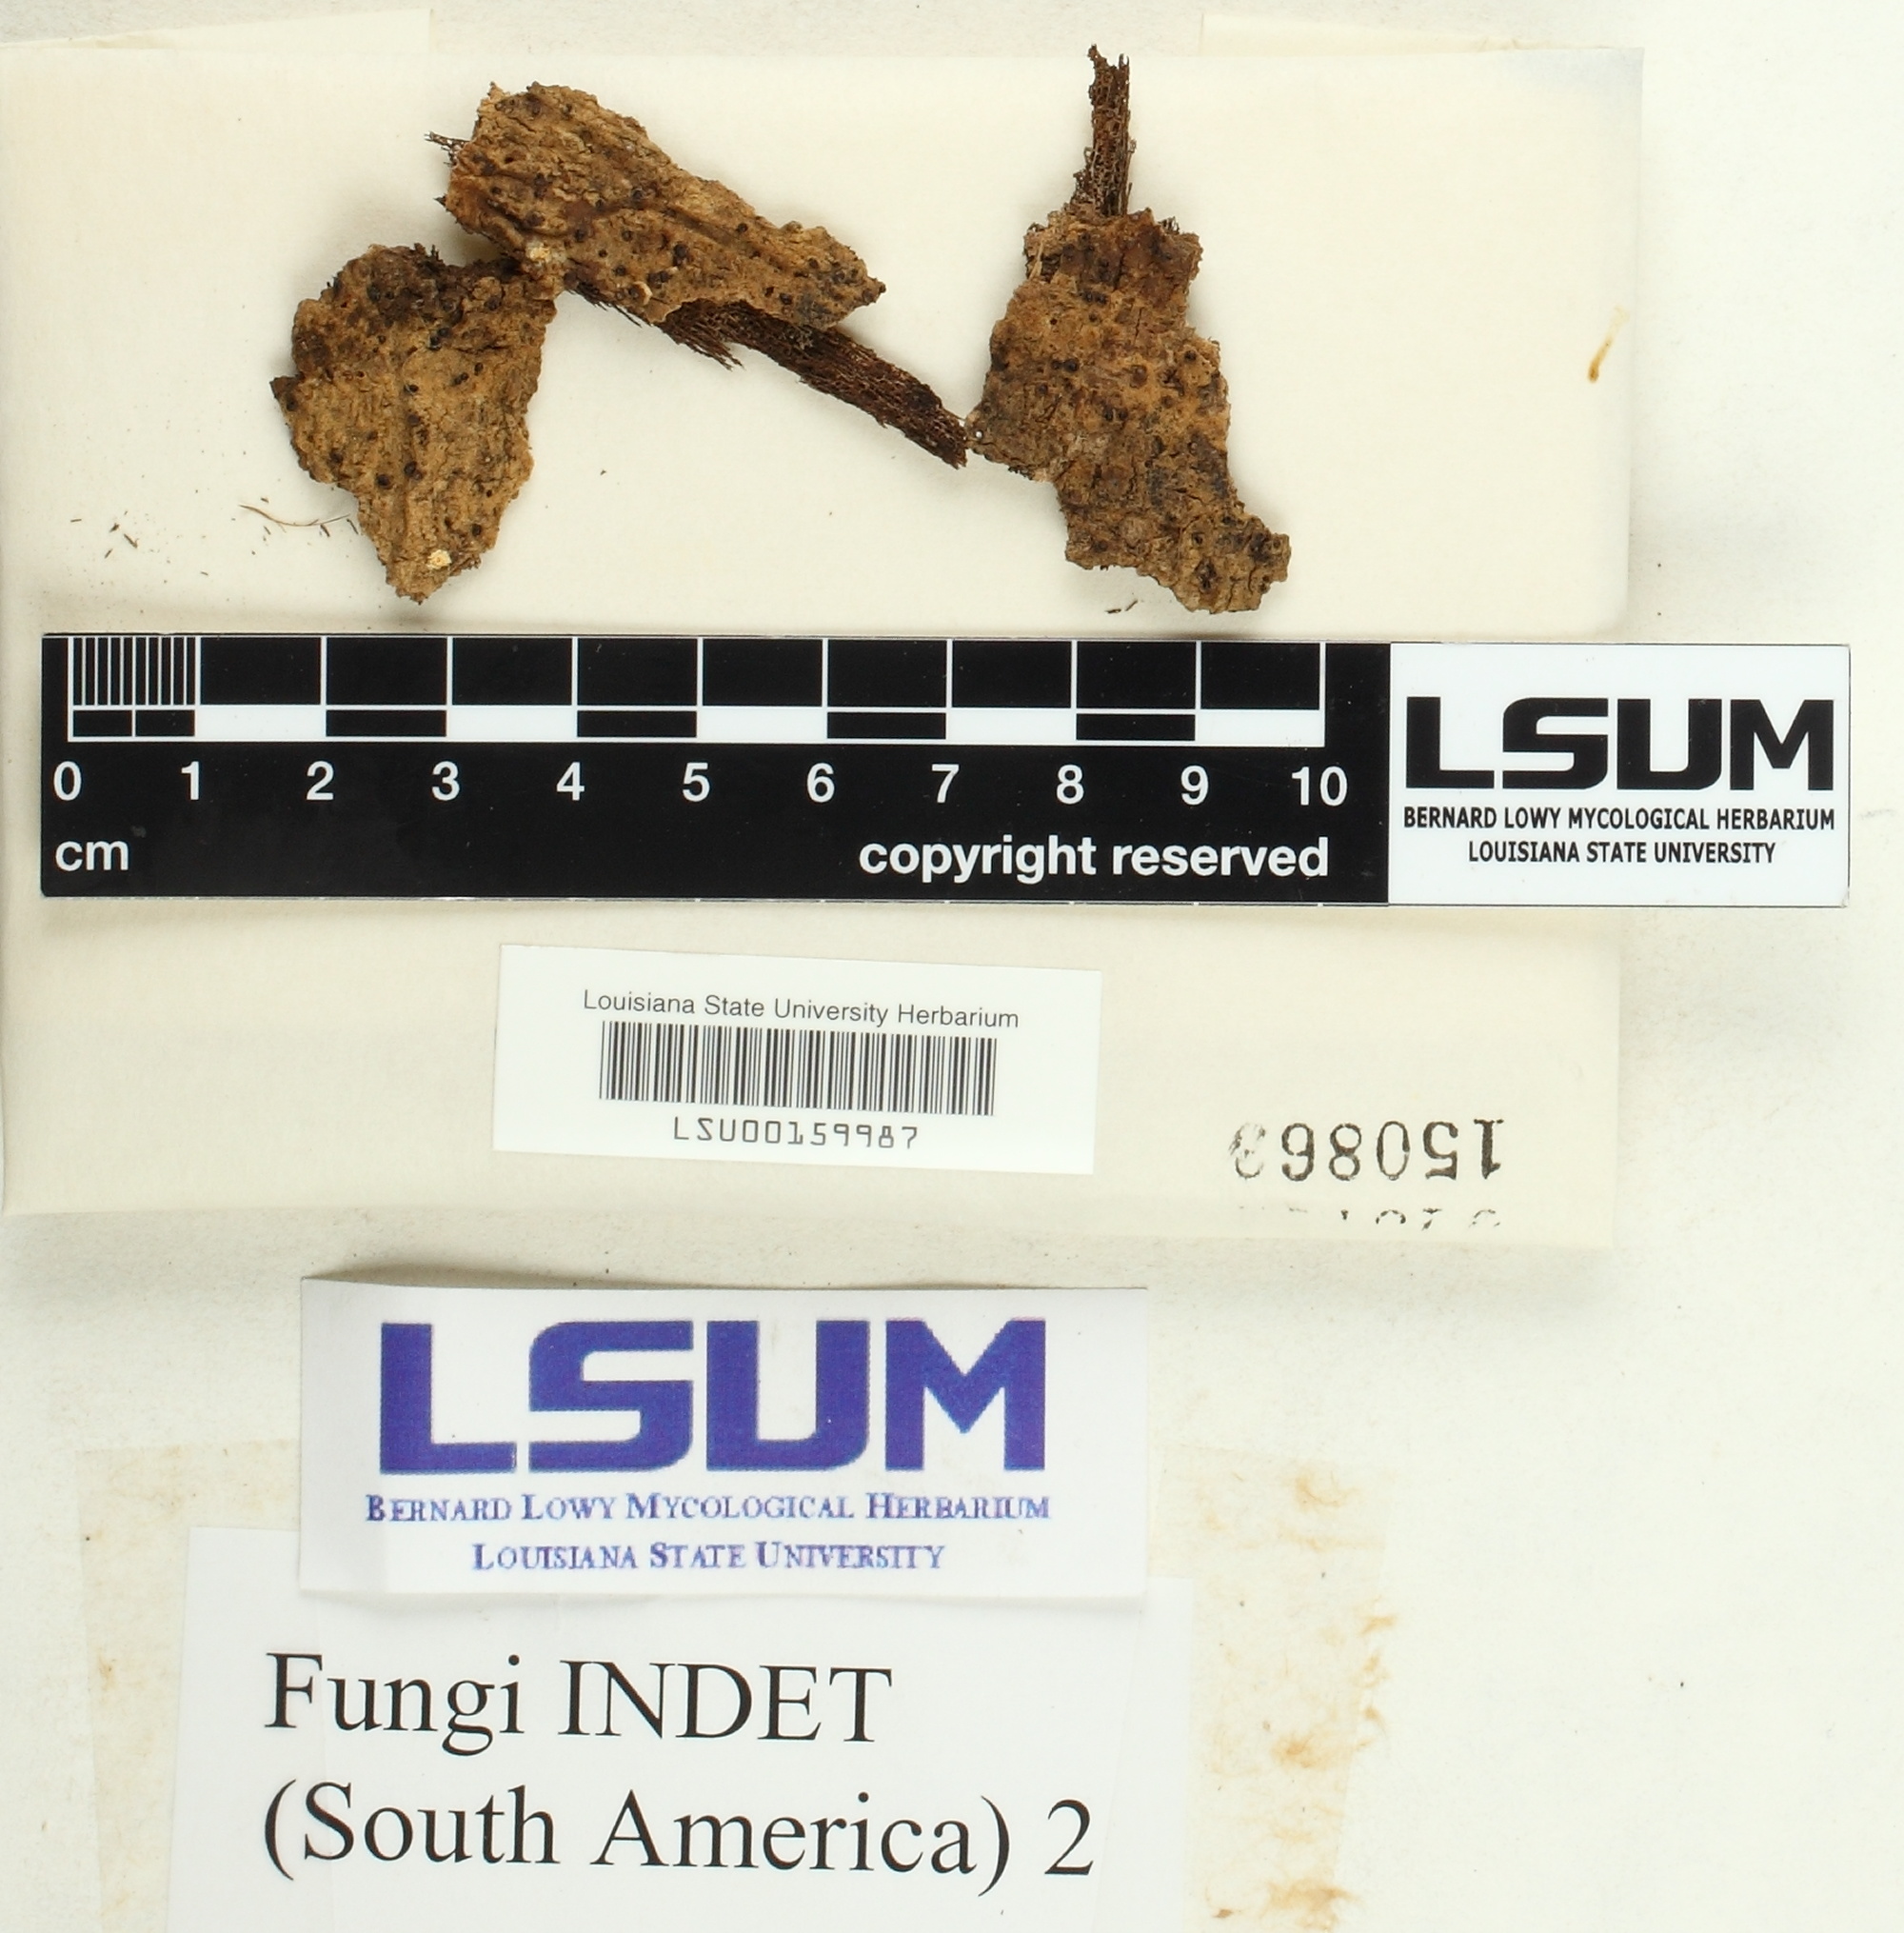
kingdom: Fungi
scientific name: Fungi
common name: Fungi
